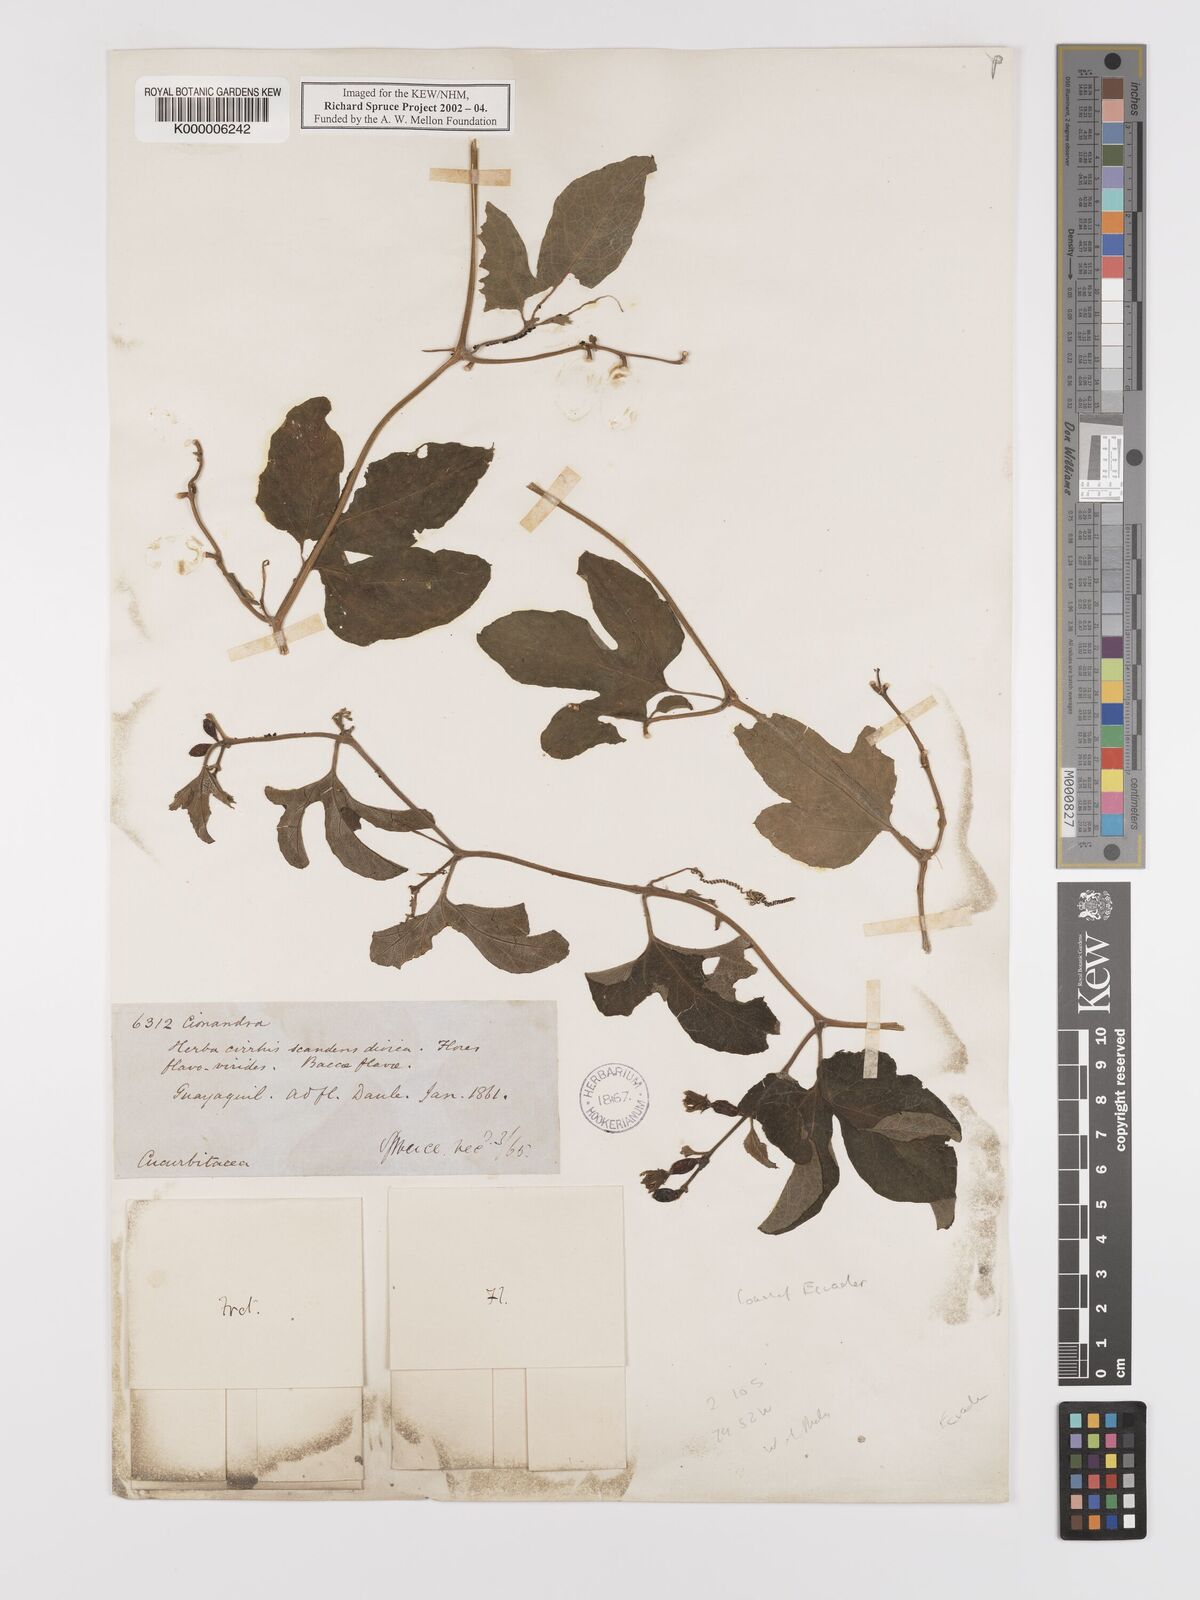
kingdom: Plantae
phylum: Tracheophyta
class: Magnoliopsida
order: Cucurbitales
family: Cucurbitaceae
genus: Cayaponia
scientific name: Cayaponia glandulosa
